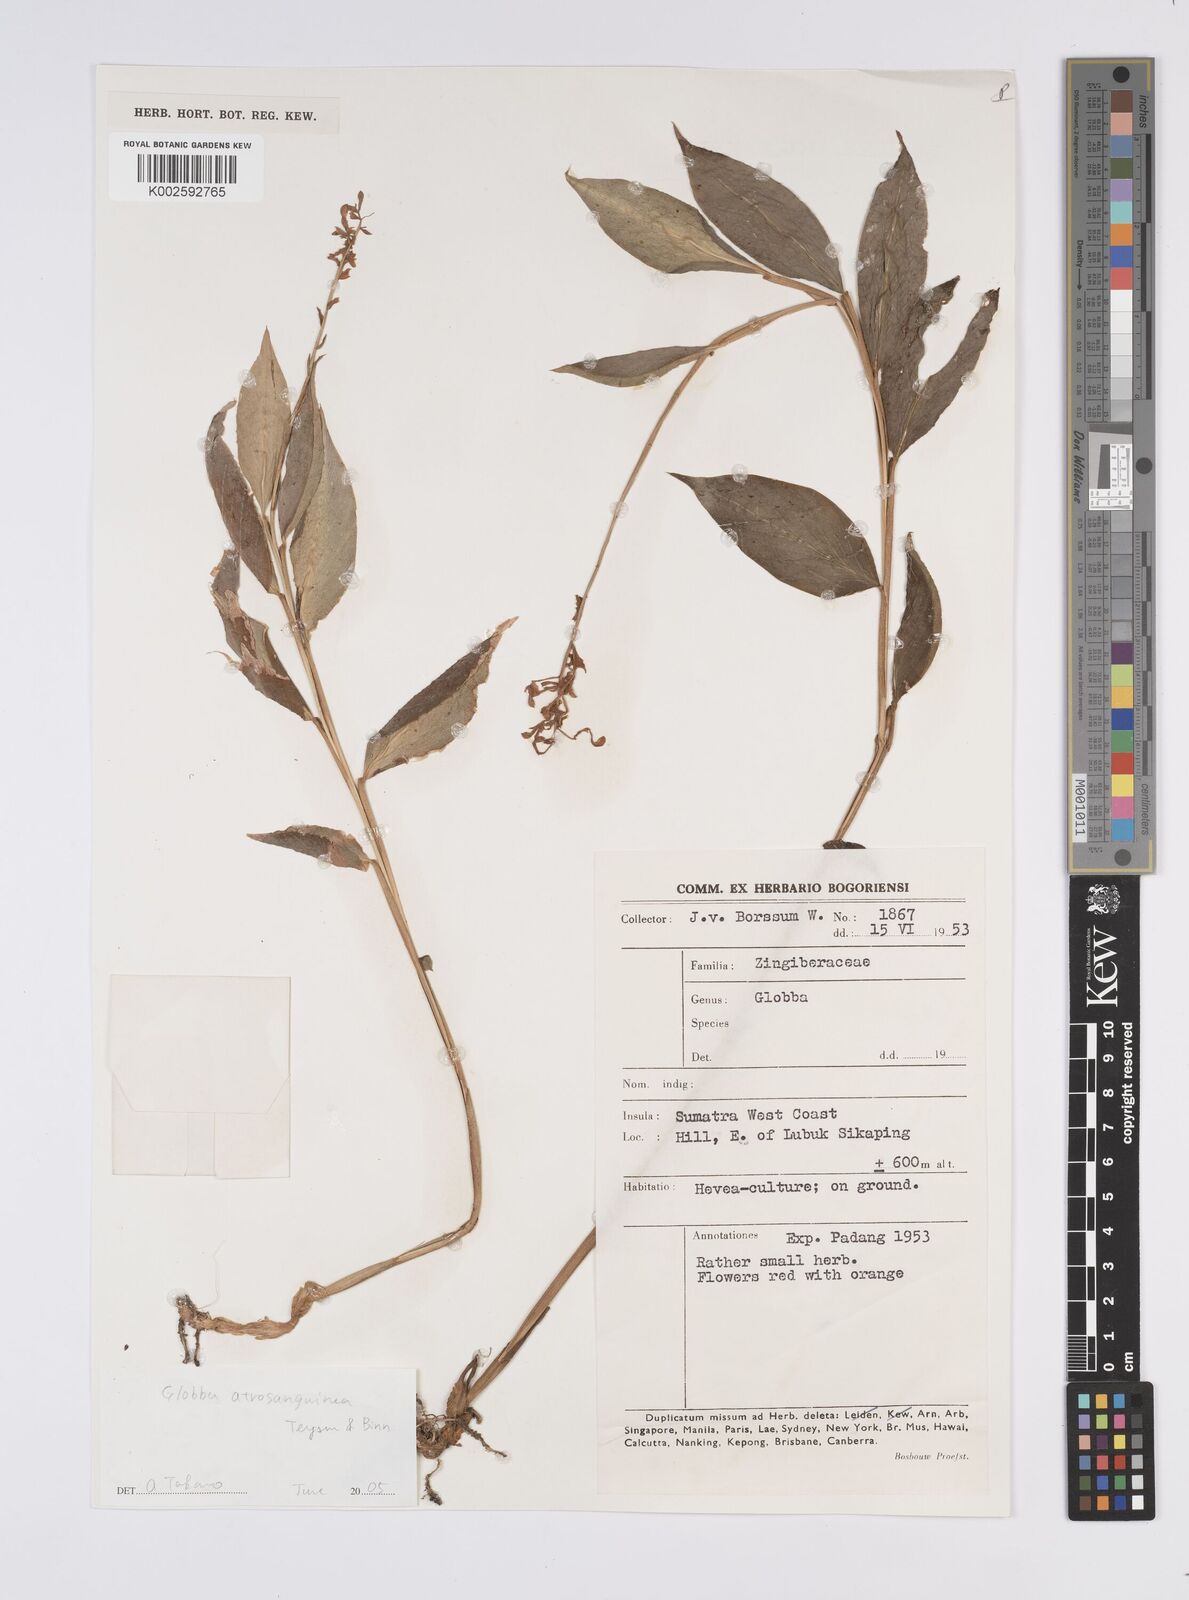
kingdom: Plantae
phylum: Tracheophyta
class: Liliopsida
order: Zingiberales
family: Zingiberaceae
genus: Globba
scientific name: Globba atrosanguinea
